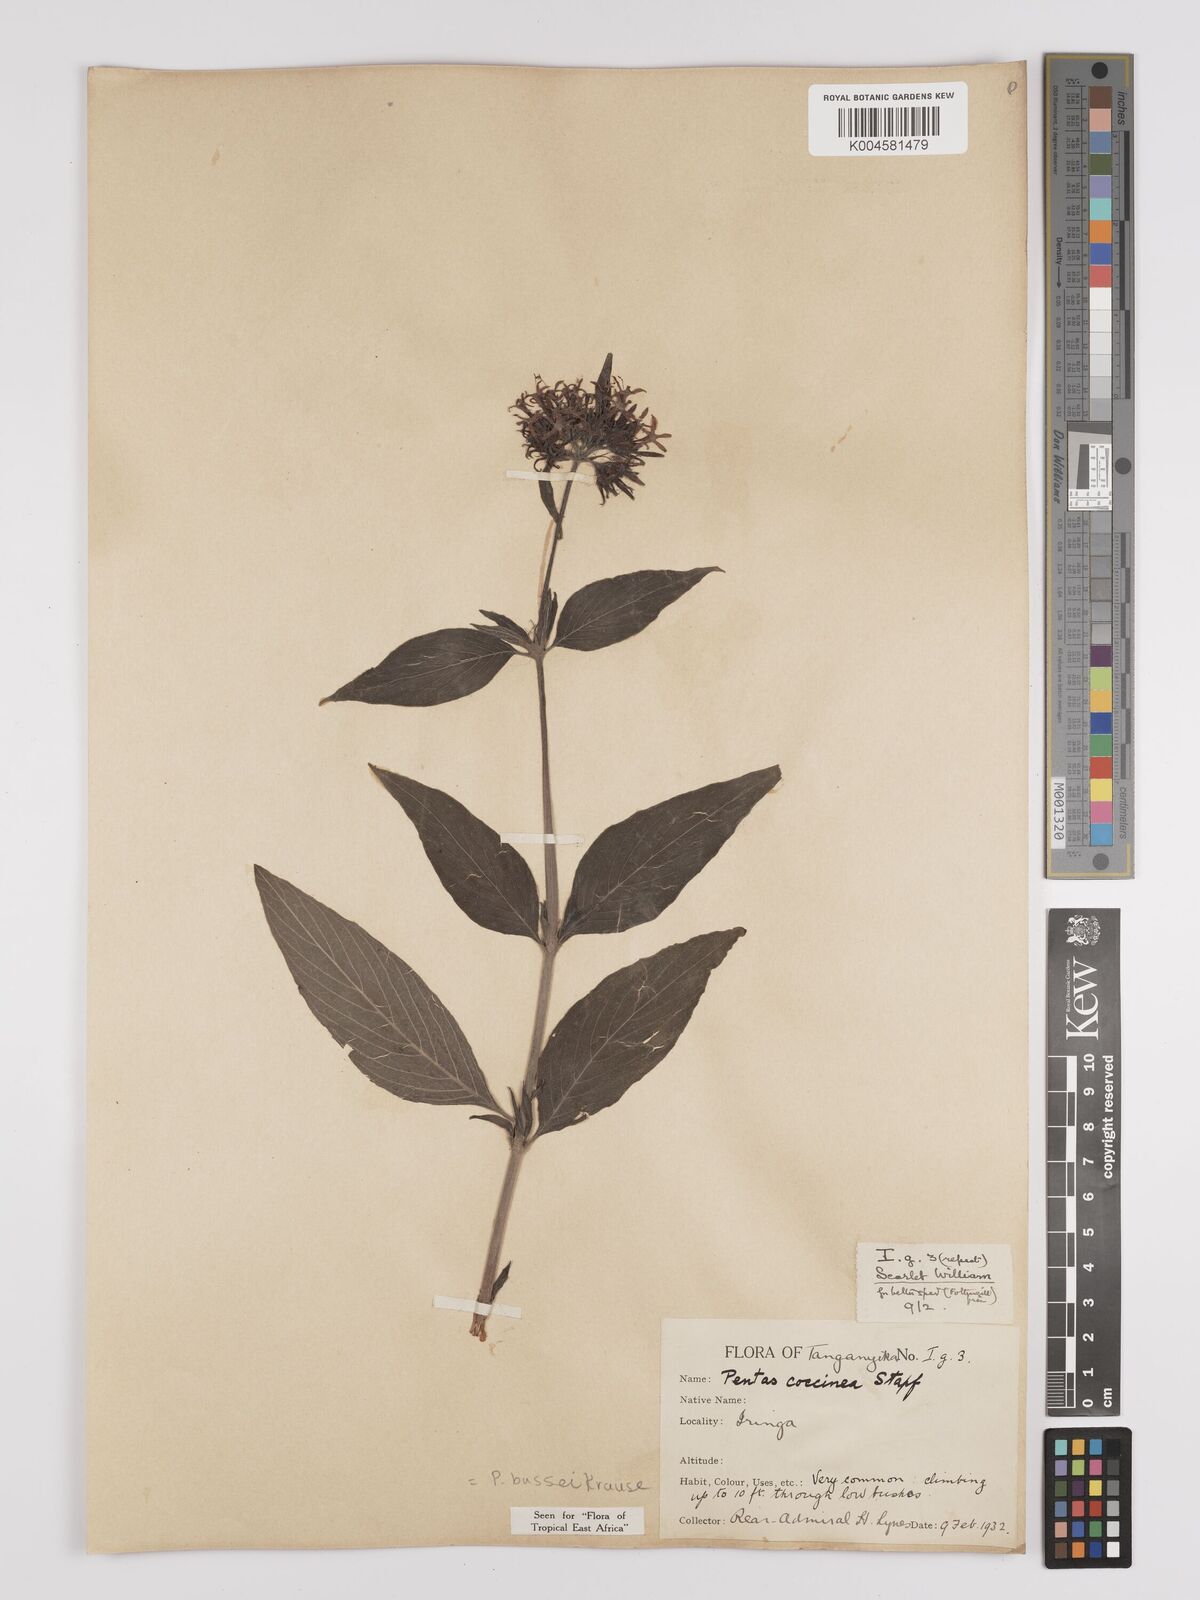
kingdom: Plantae
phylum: Tracheophyta
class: Magnoliopsida
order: Gentianales
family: Rubiaceae
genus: Rhodopentas
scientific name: Rhodopentas bussei
